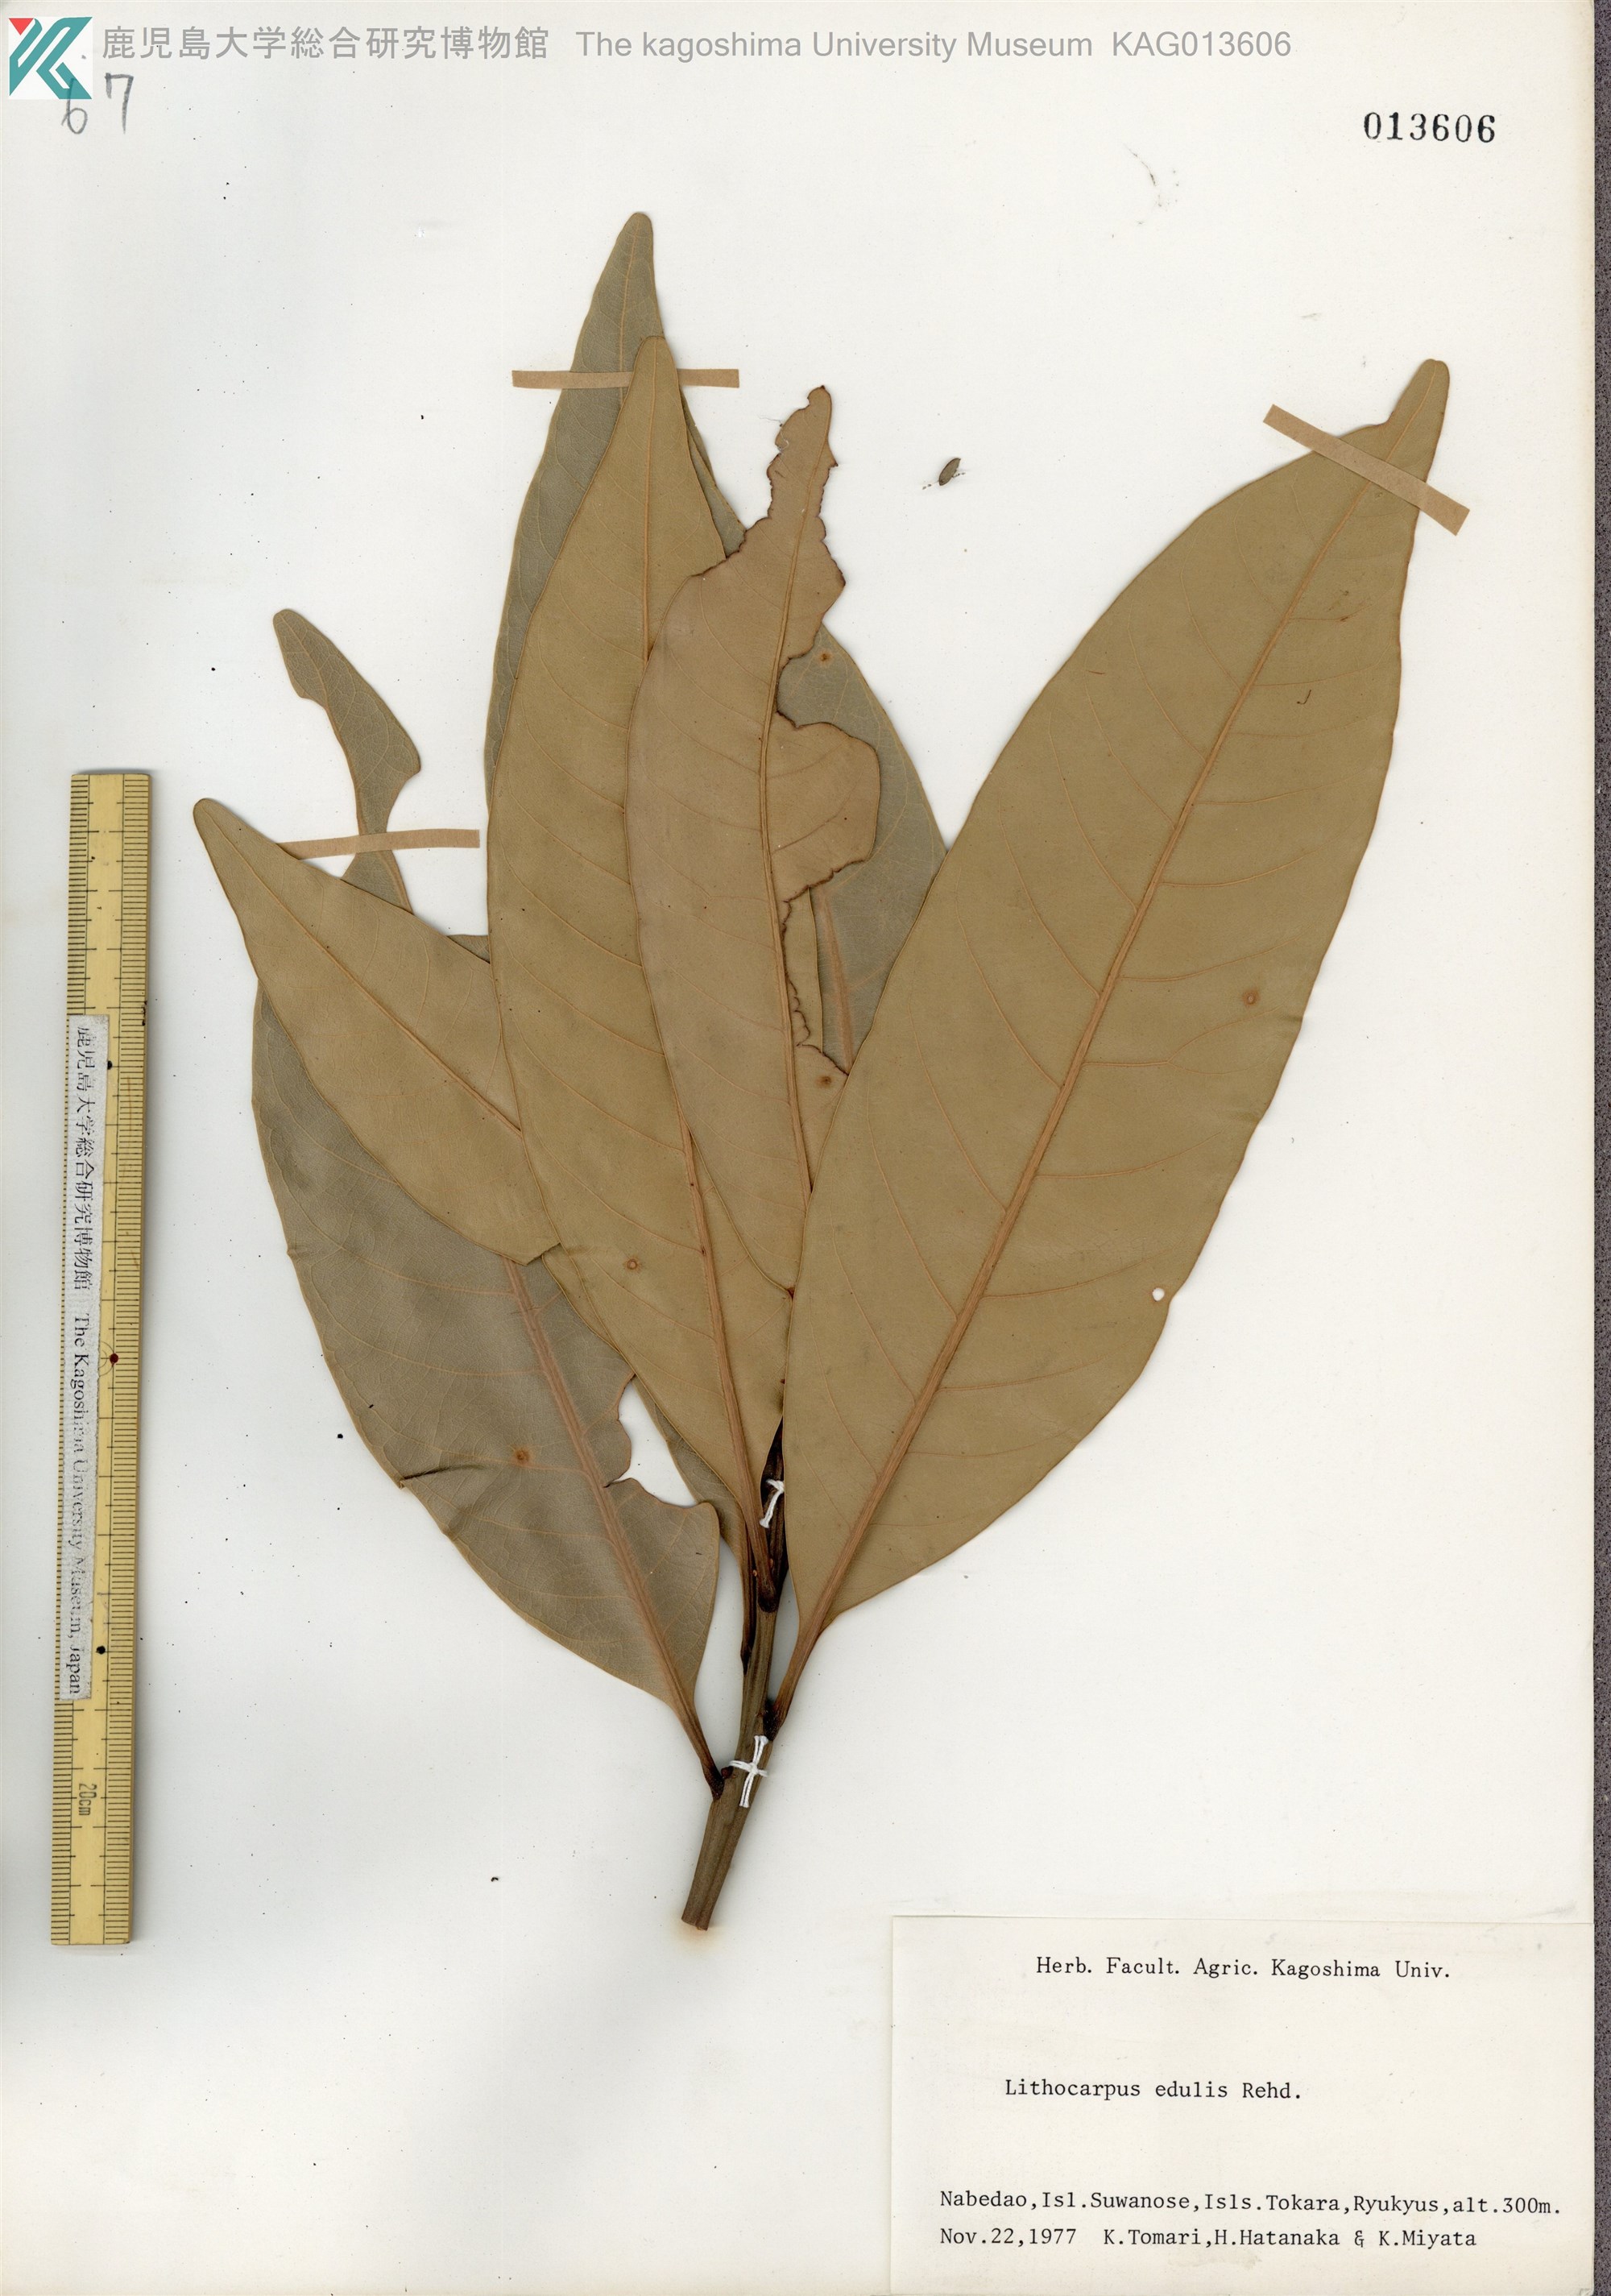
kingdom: Plantae
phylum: Tracheophyta
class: Magnoliopsida
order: Fagales
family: Fagaceae
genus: Lithocarpus
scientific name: Lithocarpus edulis
